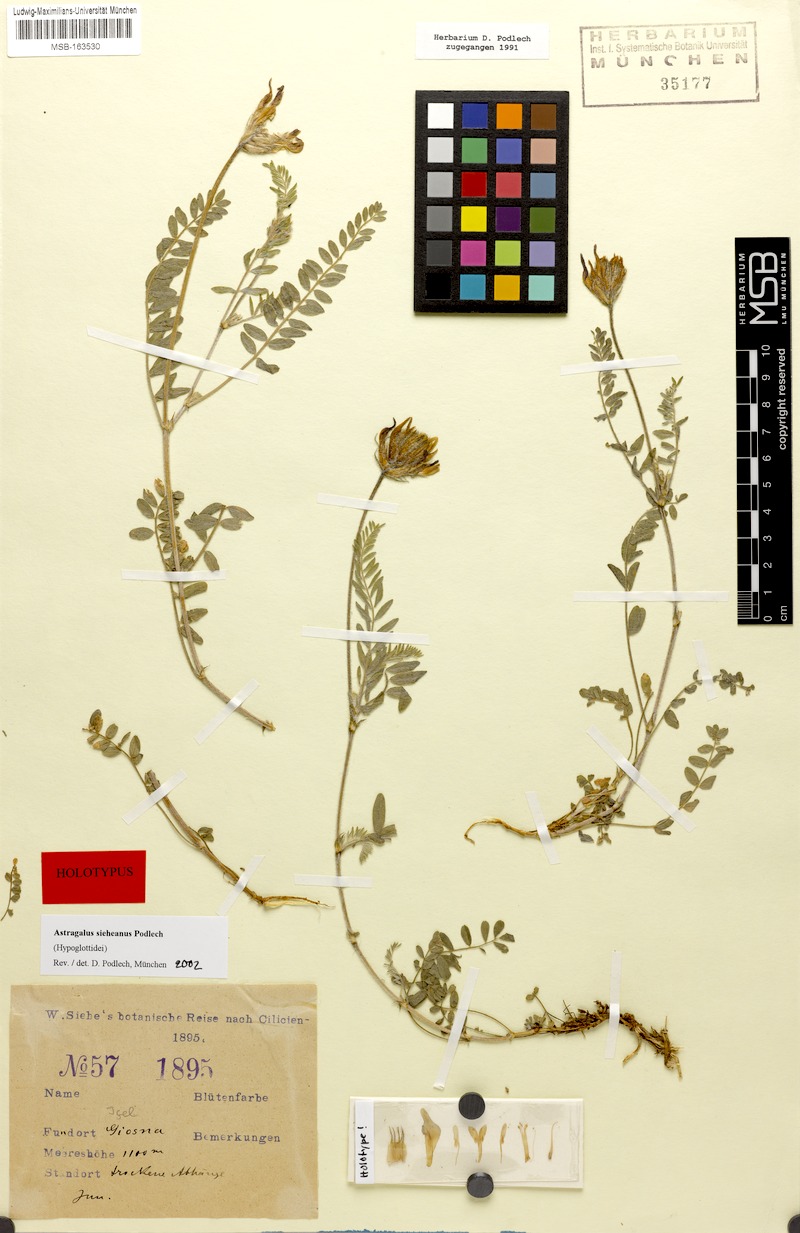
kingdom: Plantae
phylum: Tracheophyta
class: Magnoliopsida
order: Fabales
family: Fabaceae
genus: Astragalus
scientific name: Astragalus
